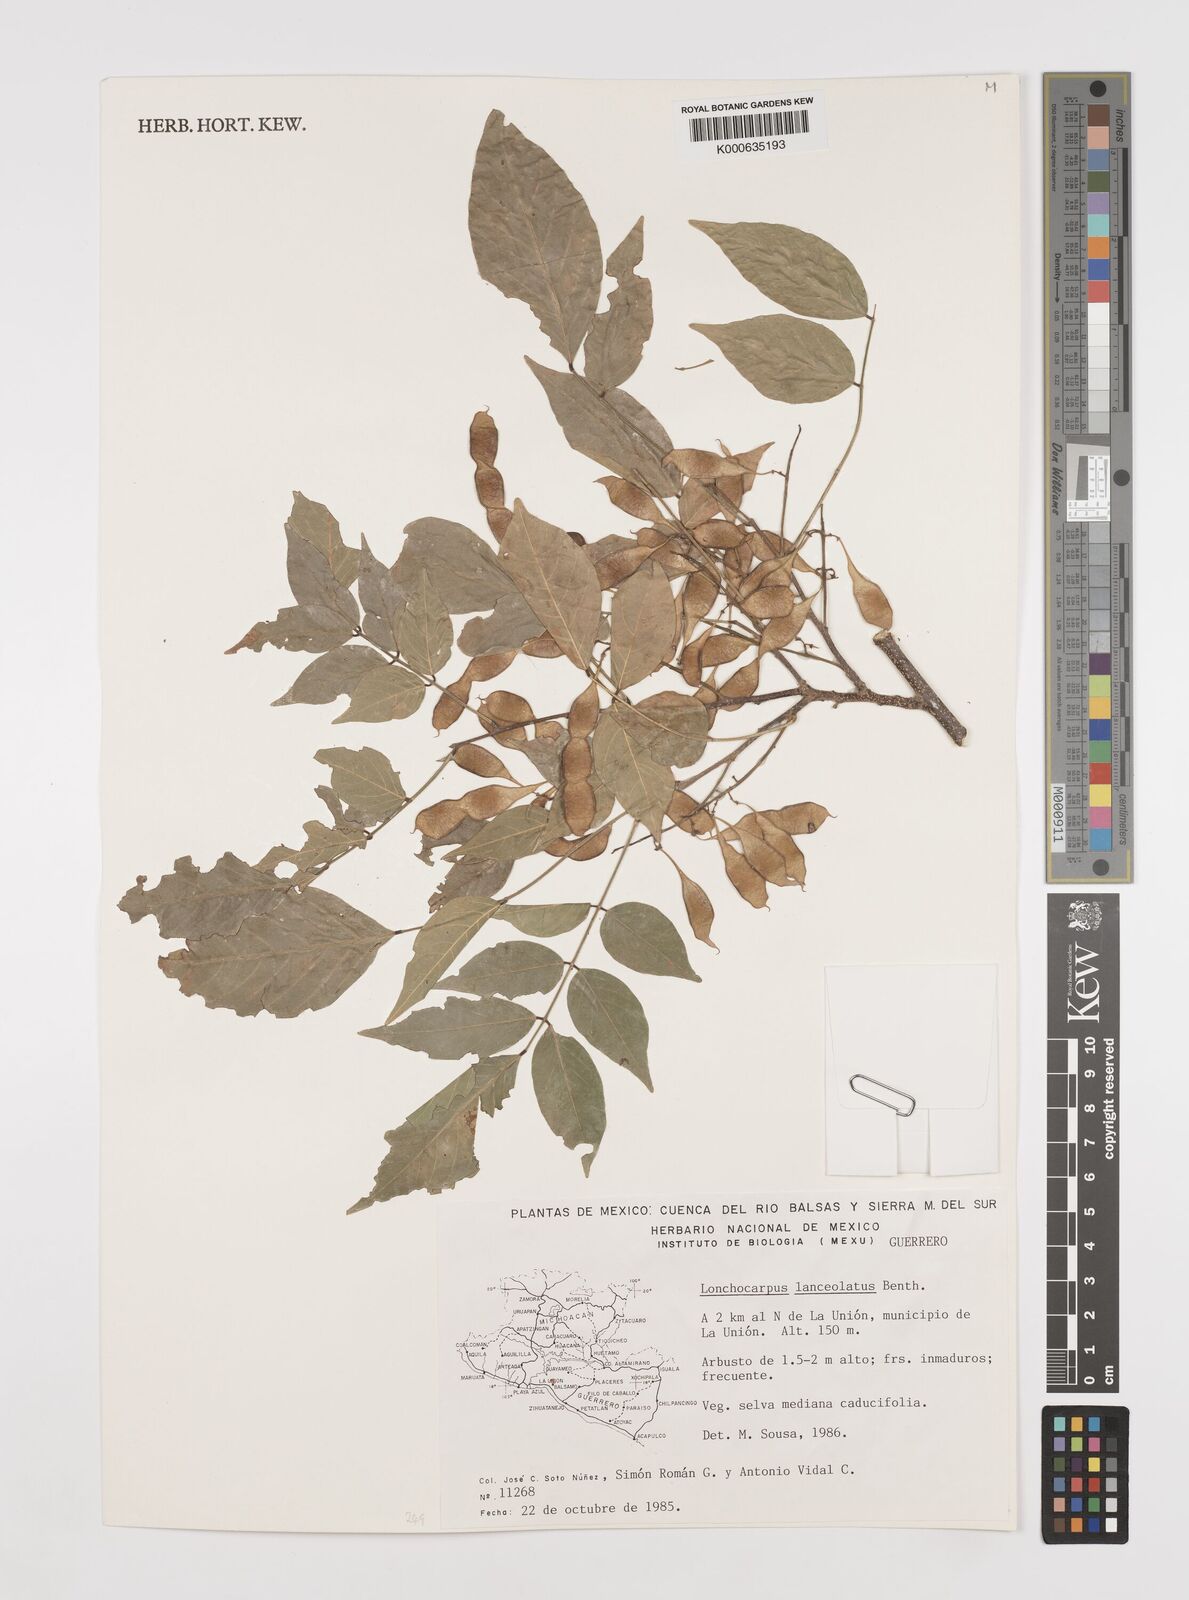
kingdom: Plantae
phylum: Tracheophyta
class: Magnoliopsida
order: Fabales
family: Fabaceae
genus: Lonchocarpus
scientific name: Lonchocarpus lanceolatus
